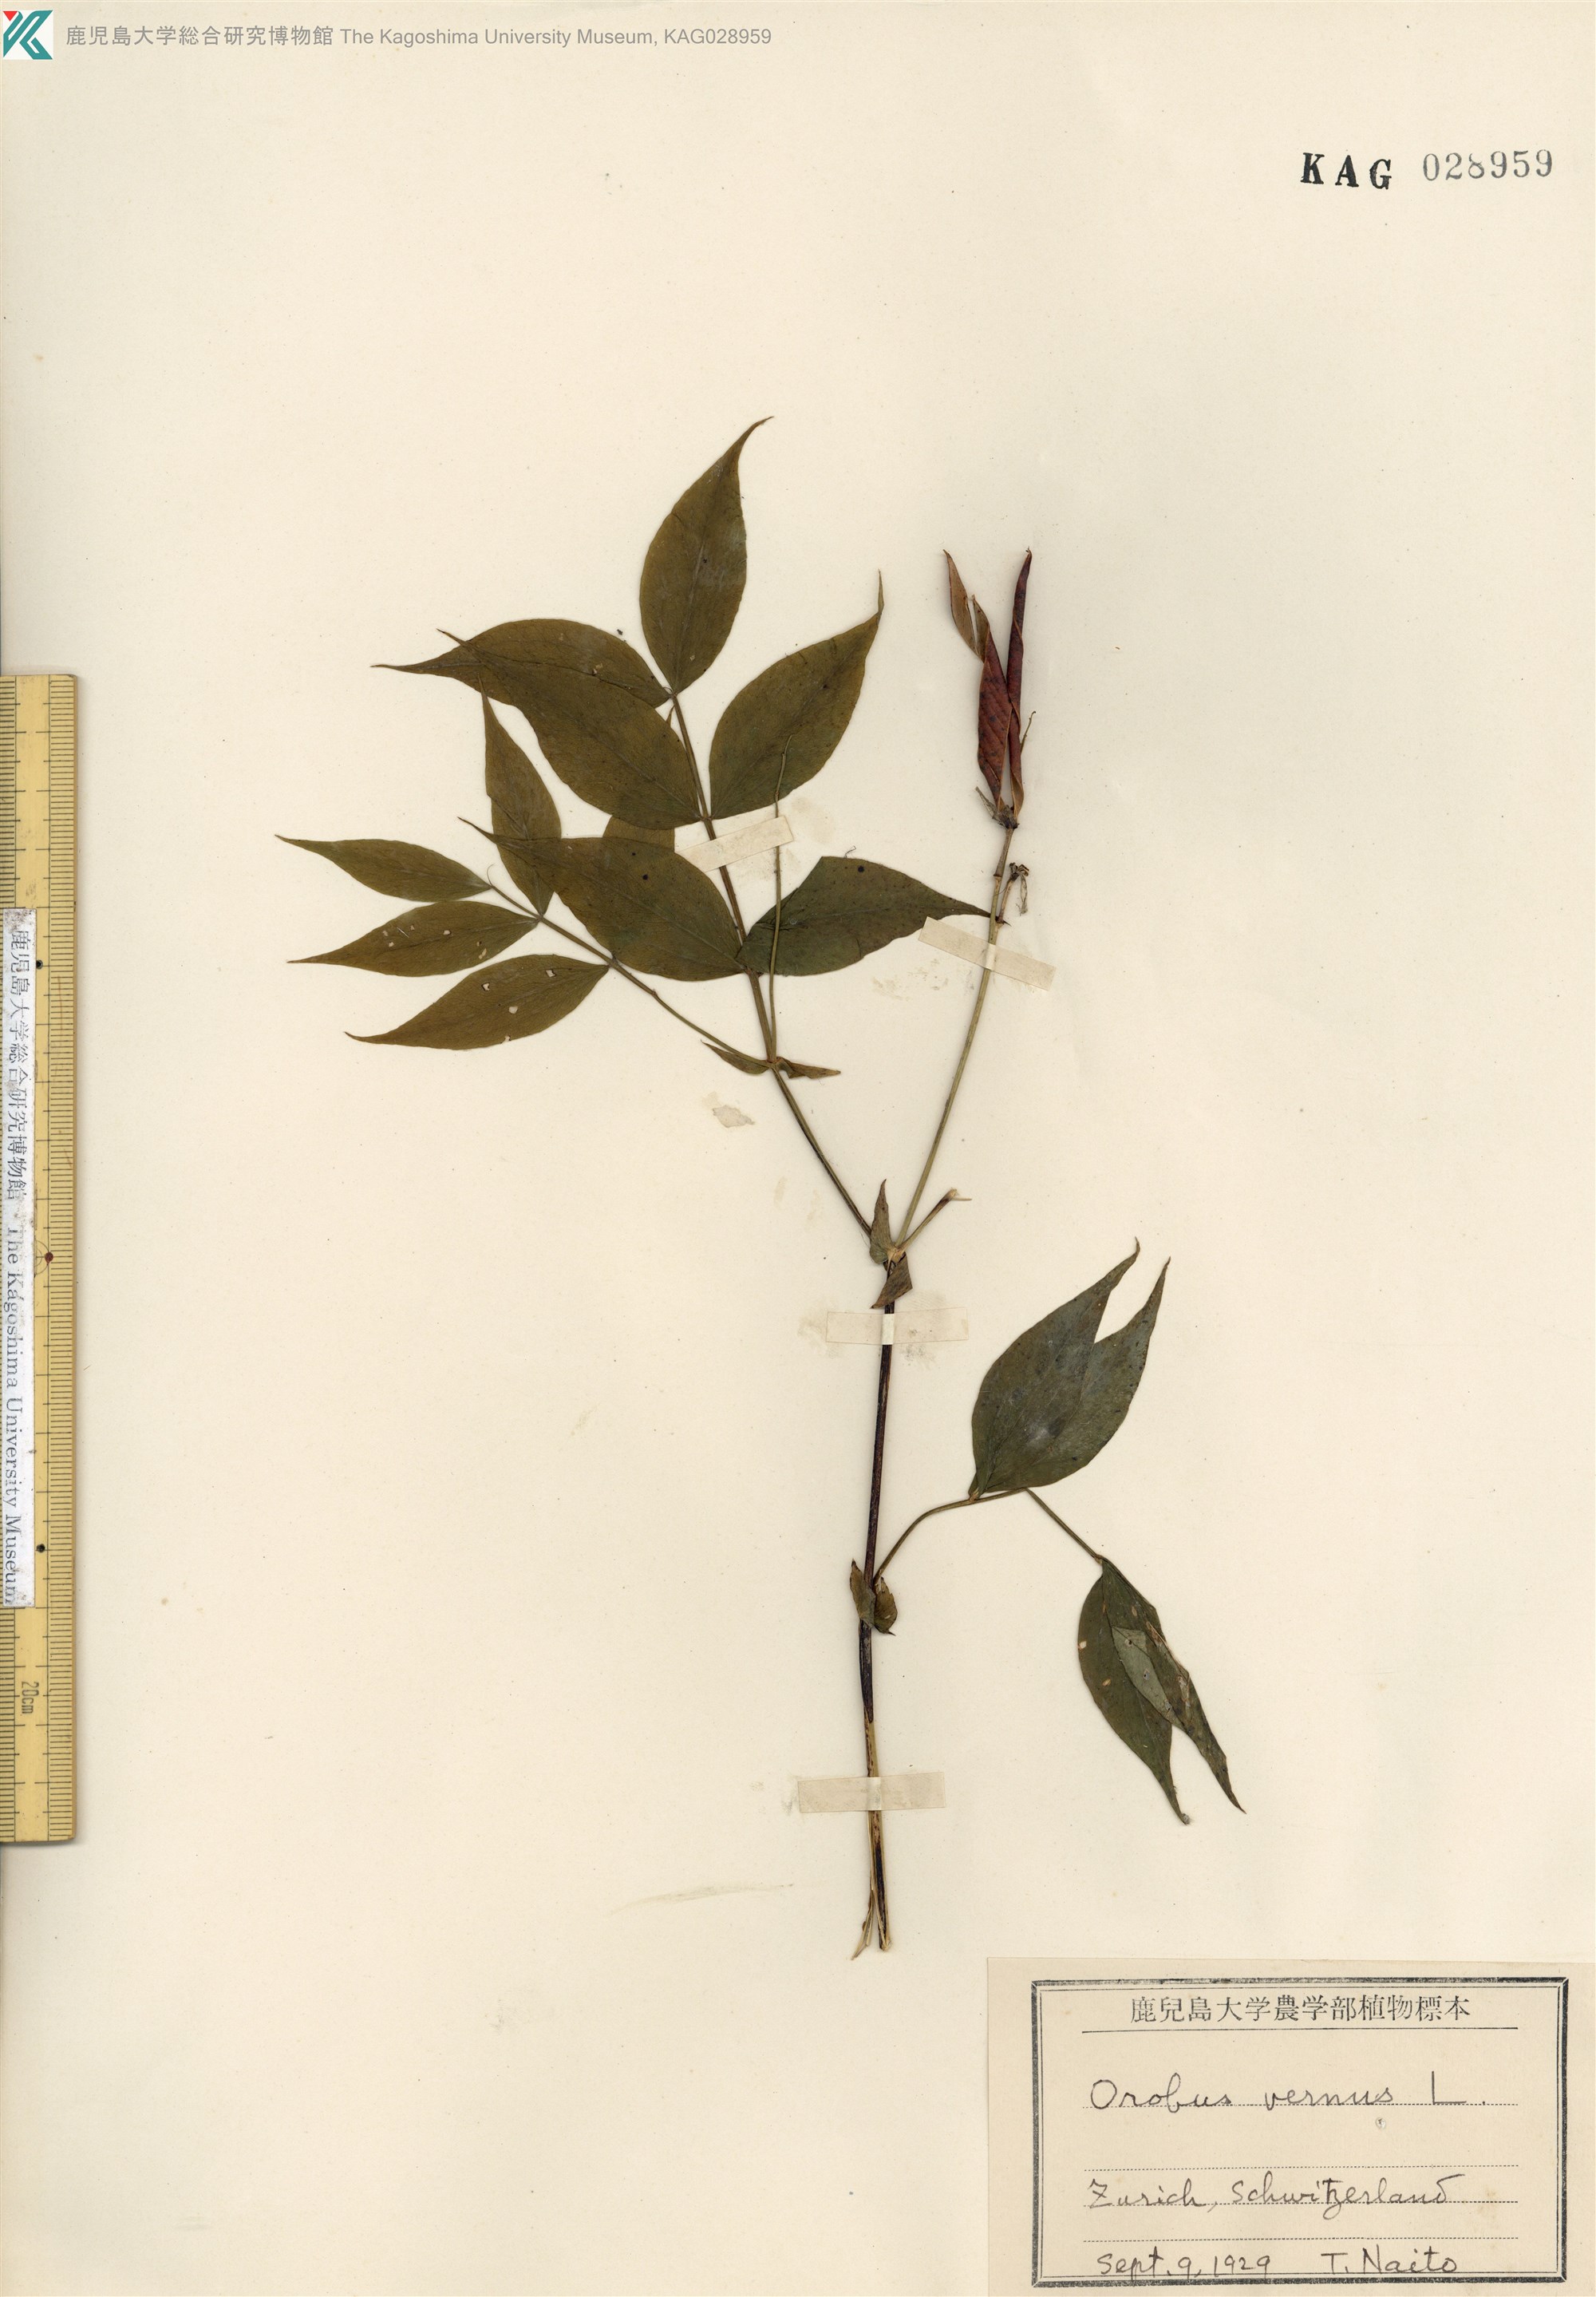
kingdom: Plantae
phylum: Tracheophyta
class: Magnoliopsida
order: Fabales
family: Fabaceae
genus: Lathyrus
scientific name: Lathyrus
